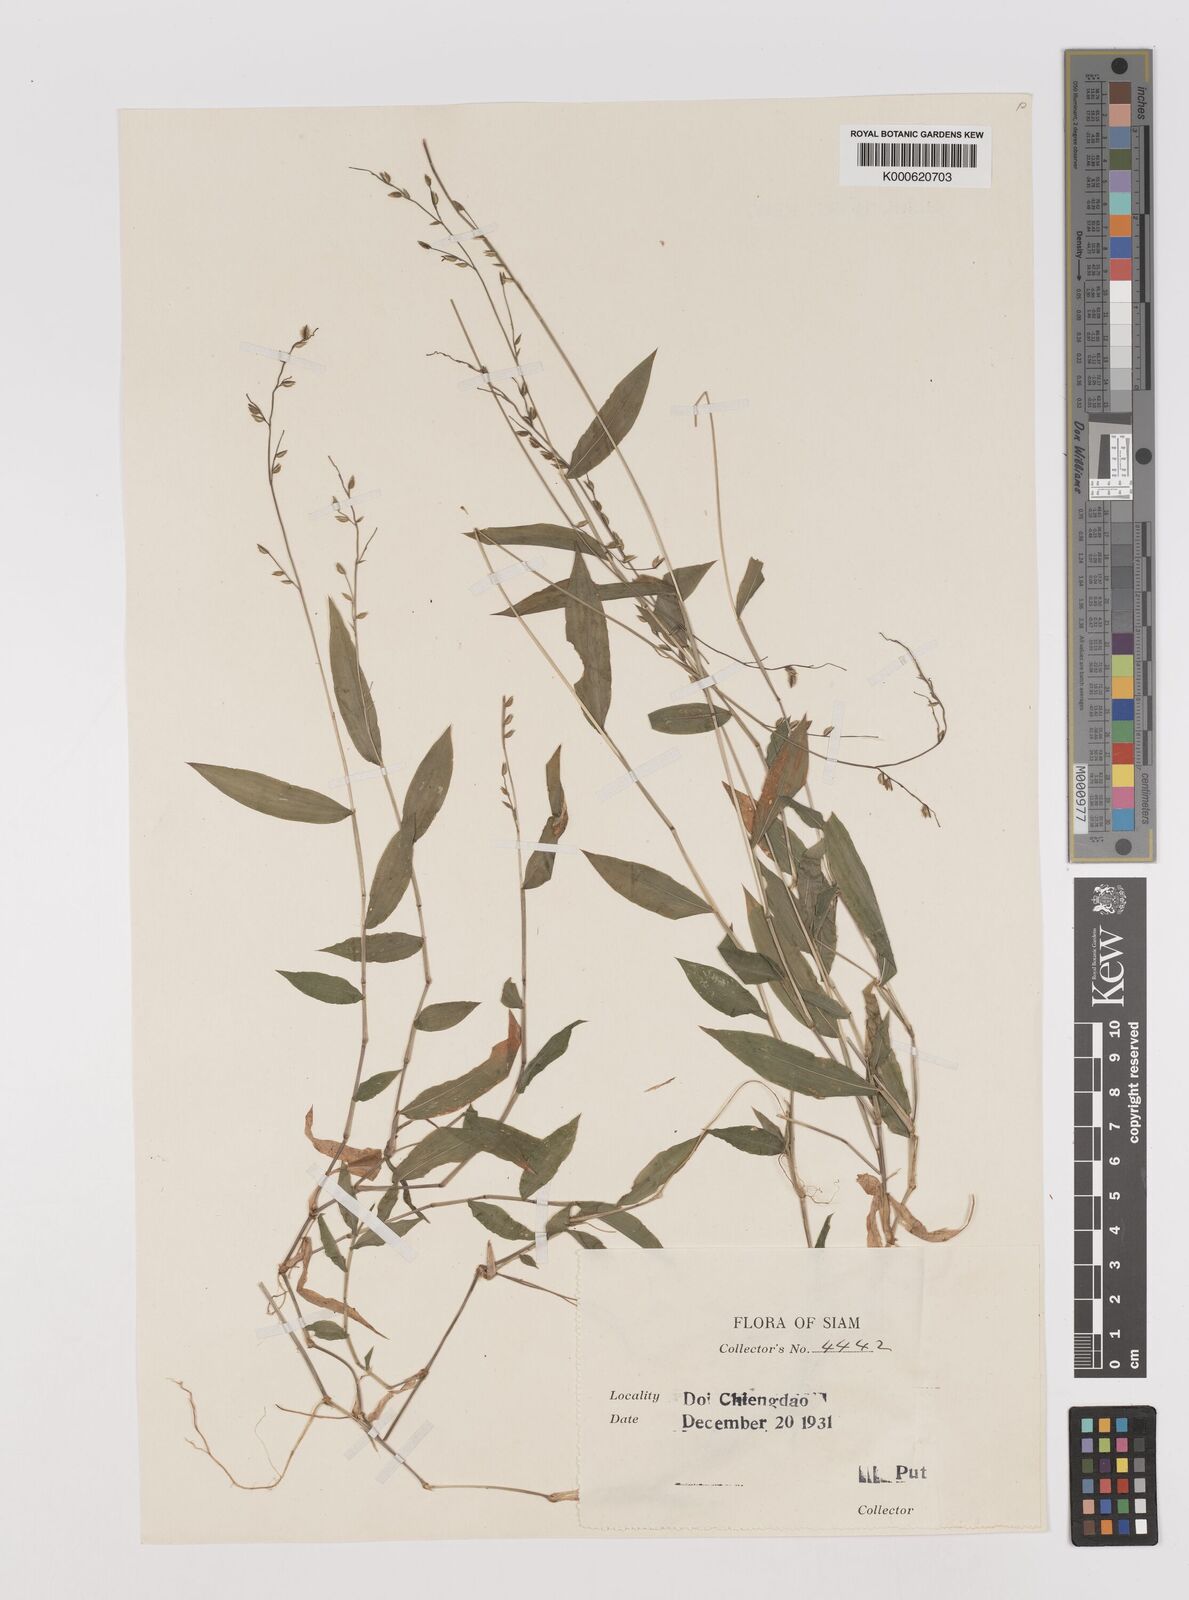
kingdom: Plantae
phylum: Tracheophyta
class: Liliopsida
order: Poales
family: Poaceae
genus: Pseudechinolaena
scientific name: Pseudechinolaena polystachya
